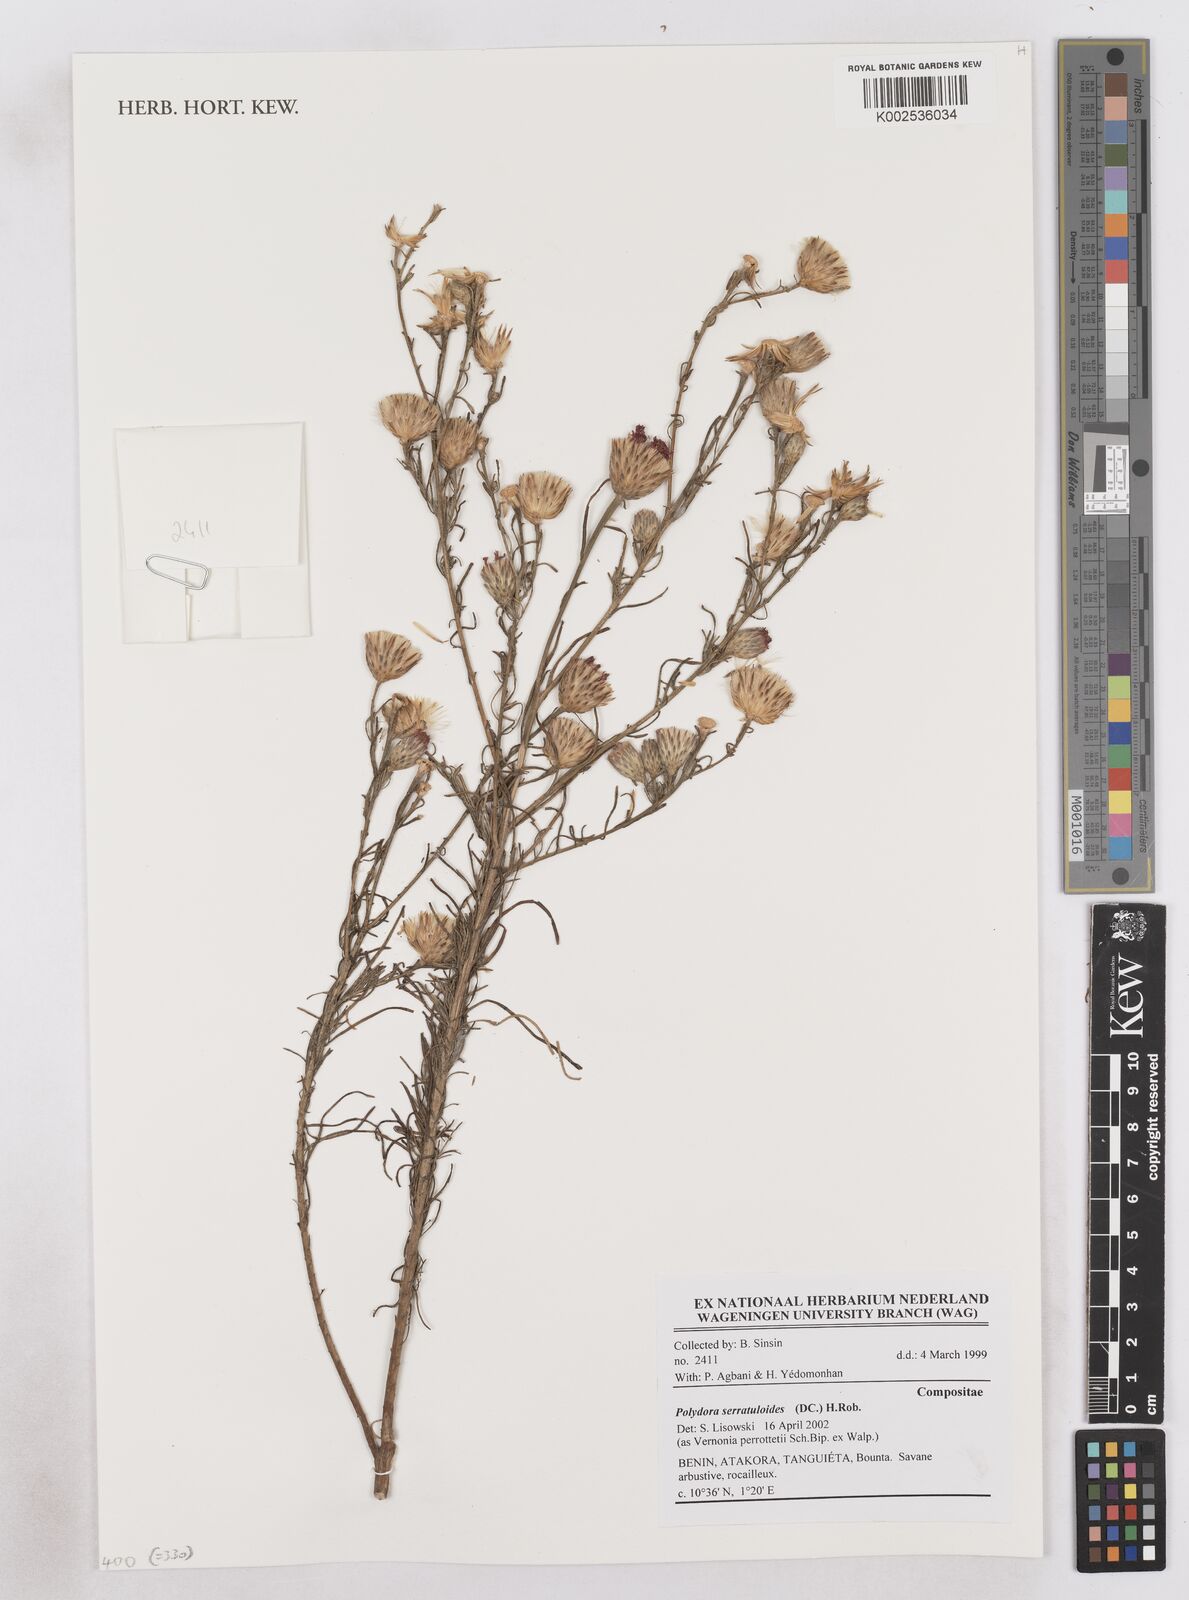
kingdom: Plantae
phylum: Tracheophyta
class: Magnoliopsida
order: Asterales
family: Asteraceae
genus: Vernonanthura
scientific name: Vernonanthura serratuloides
